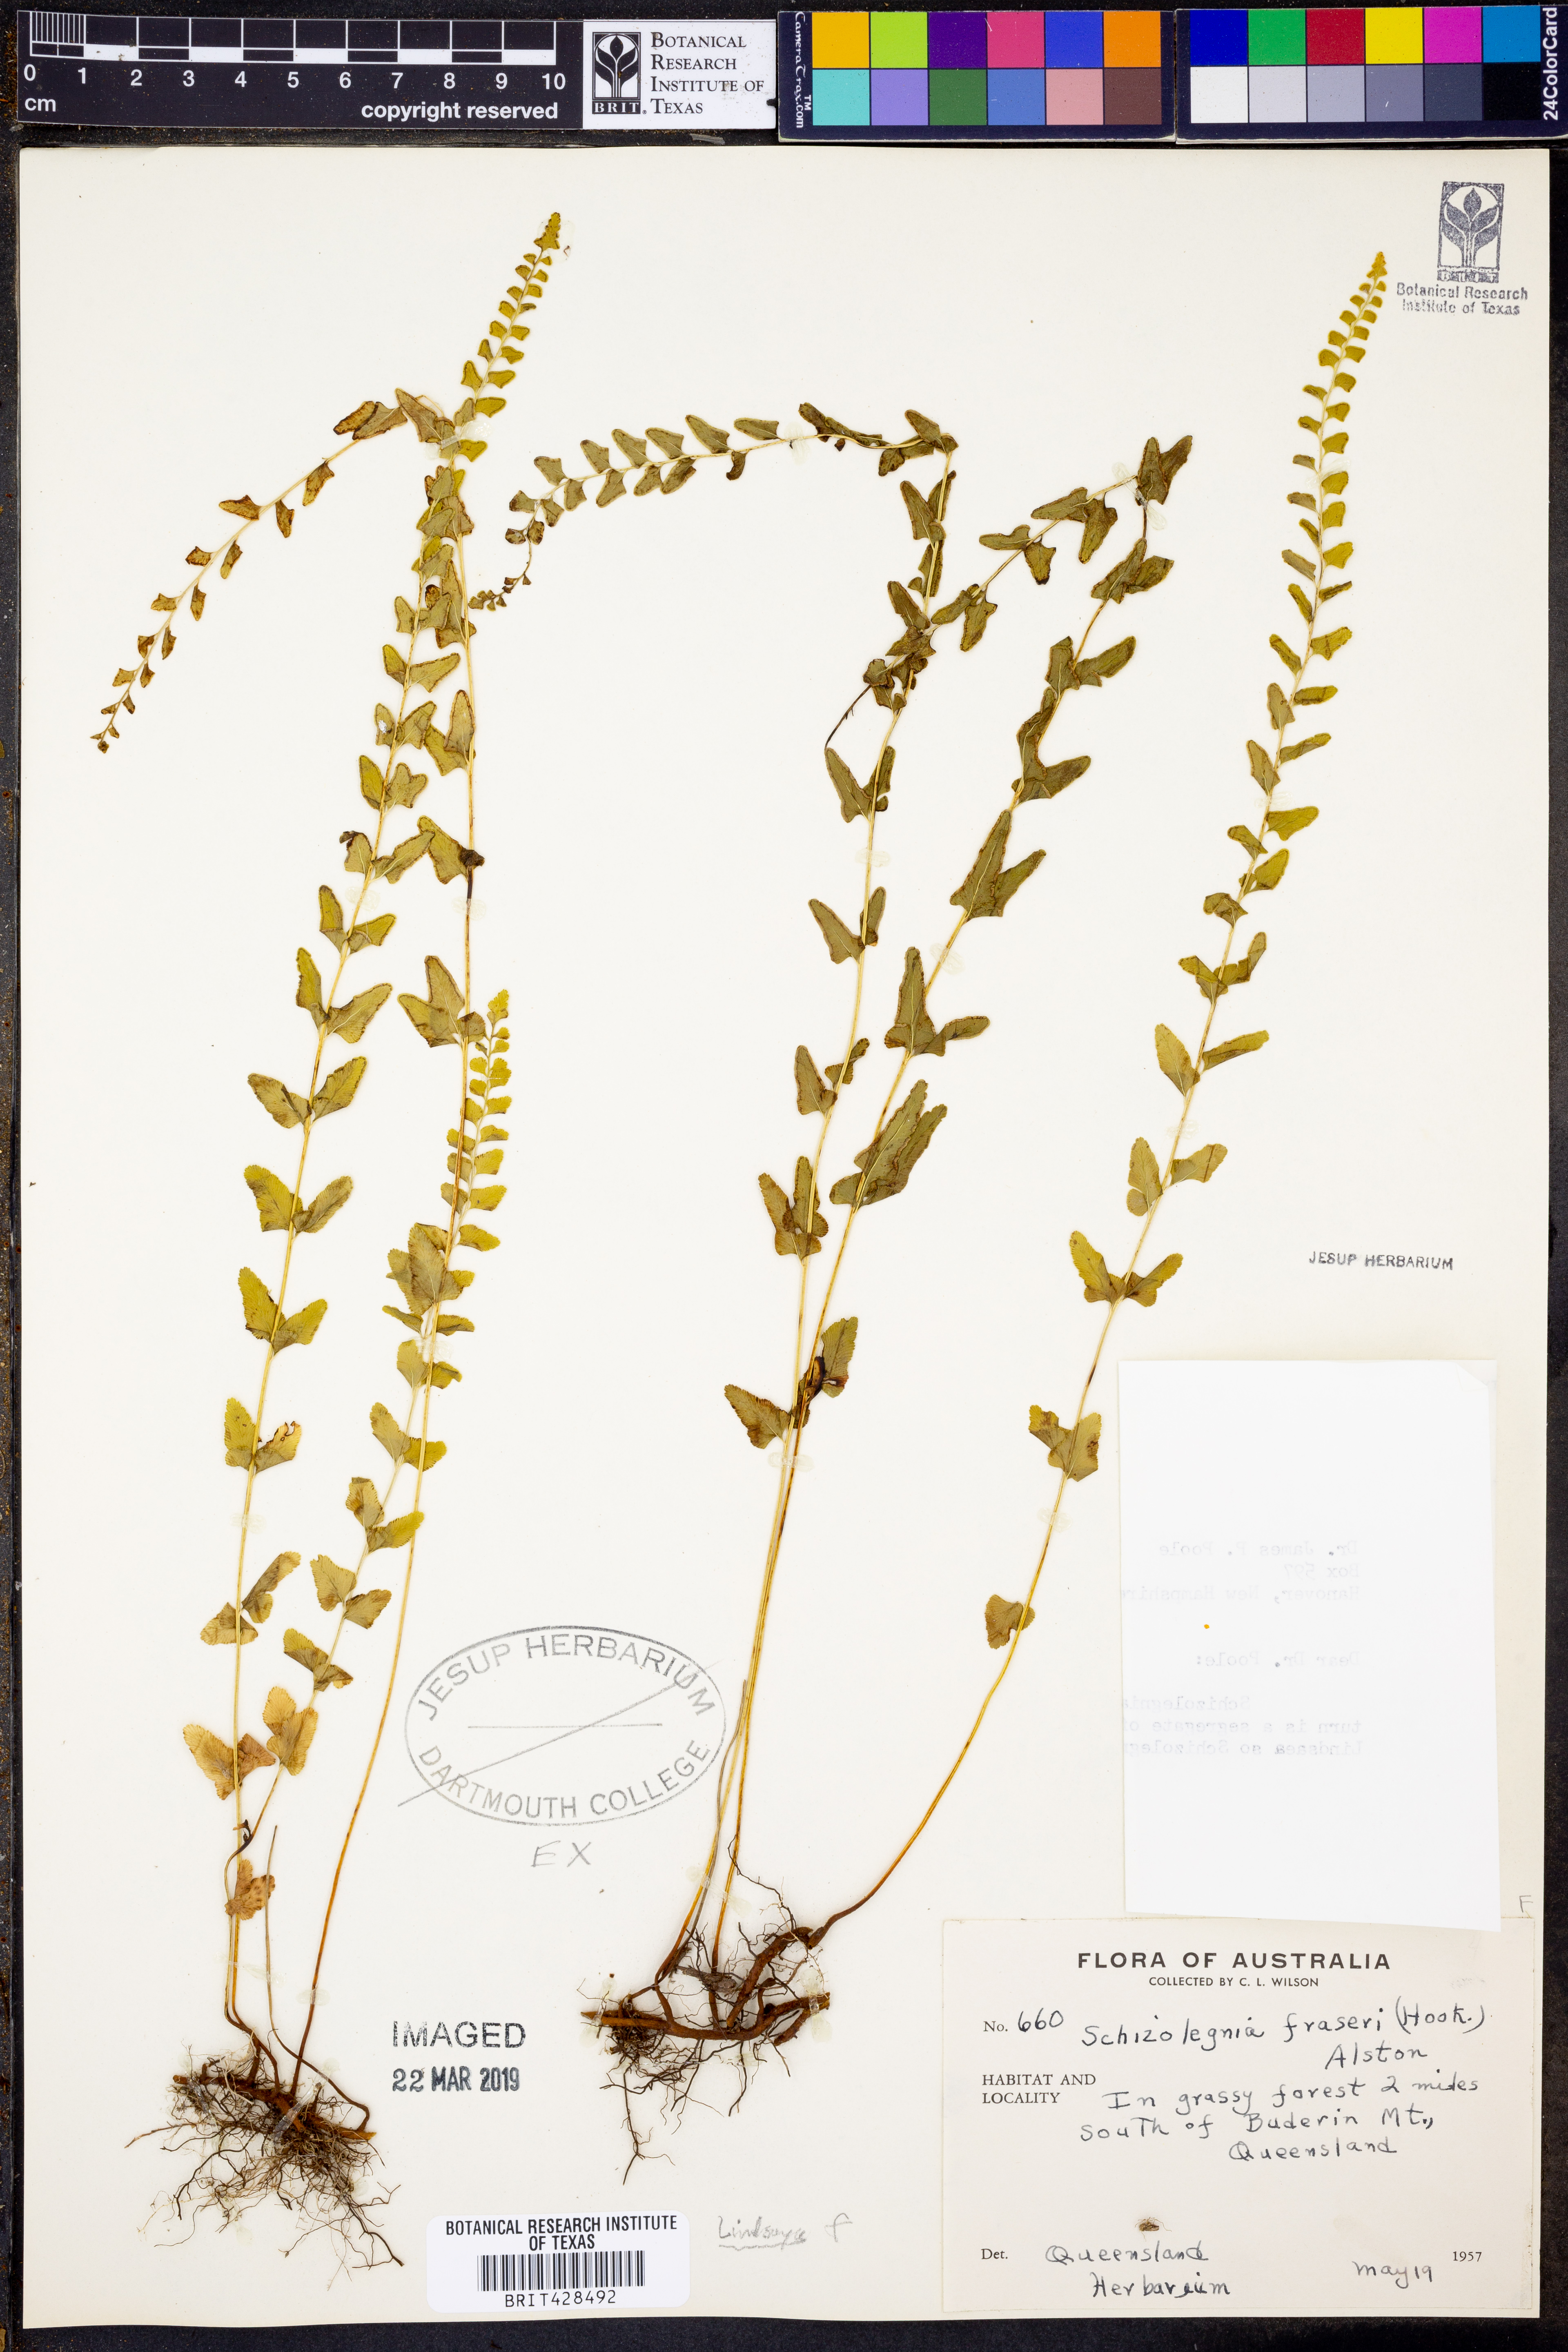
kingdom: Plantae
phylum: Tracheophyta
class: Polypodiopsida
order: Polypodiales
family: Lindsaeaceae
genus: Lindsaea
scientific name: Lindsaea fraseri
